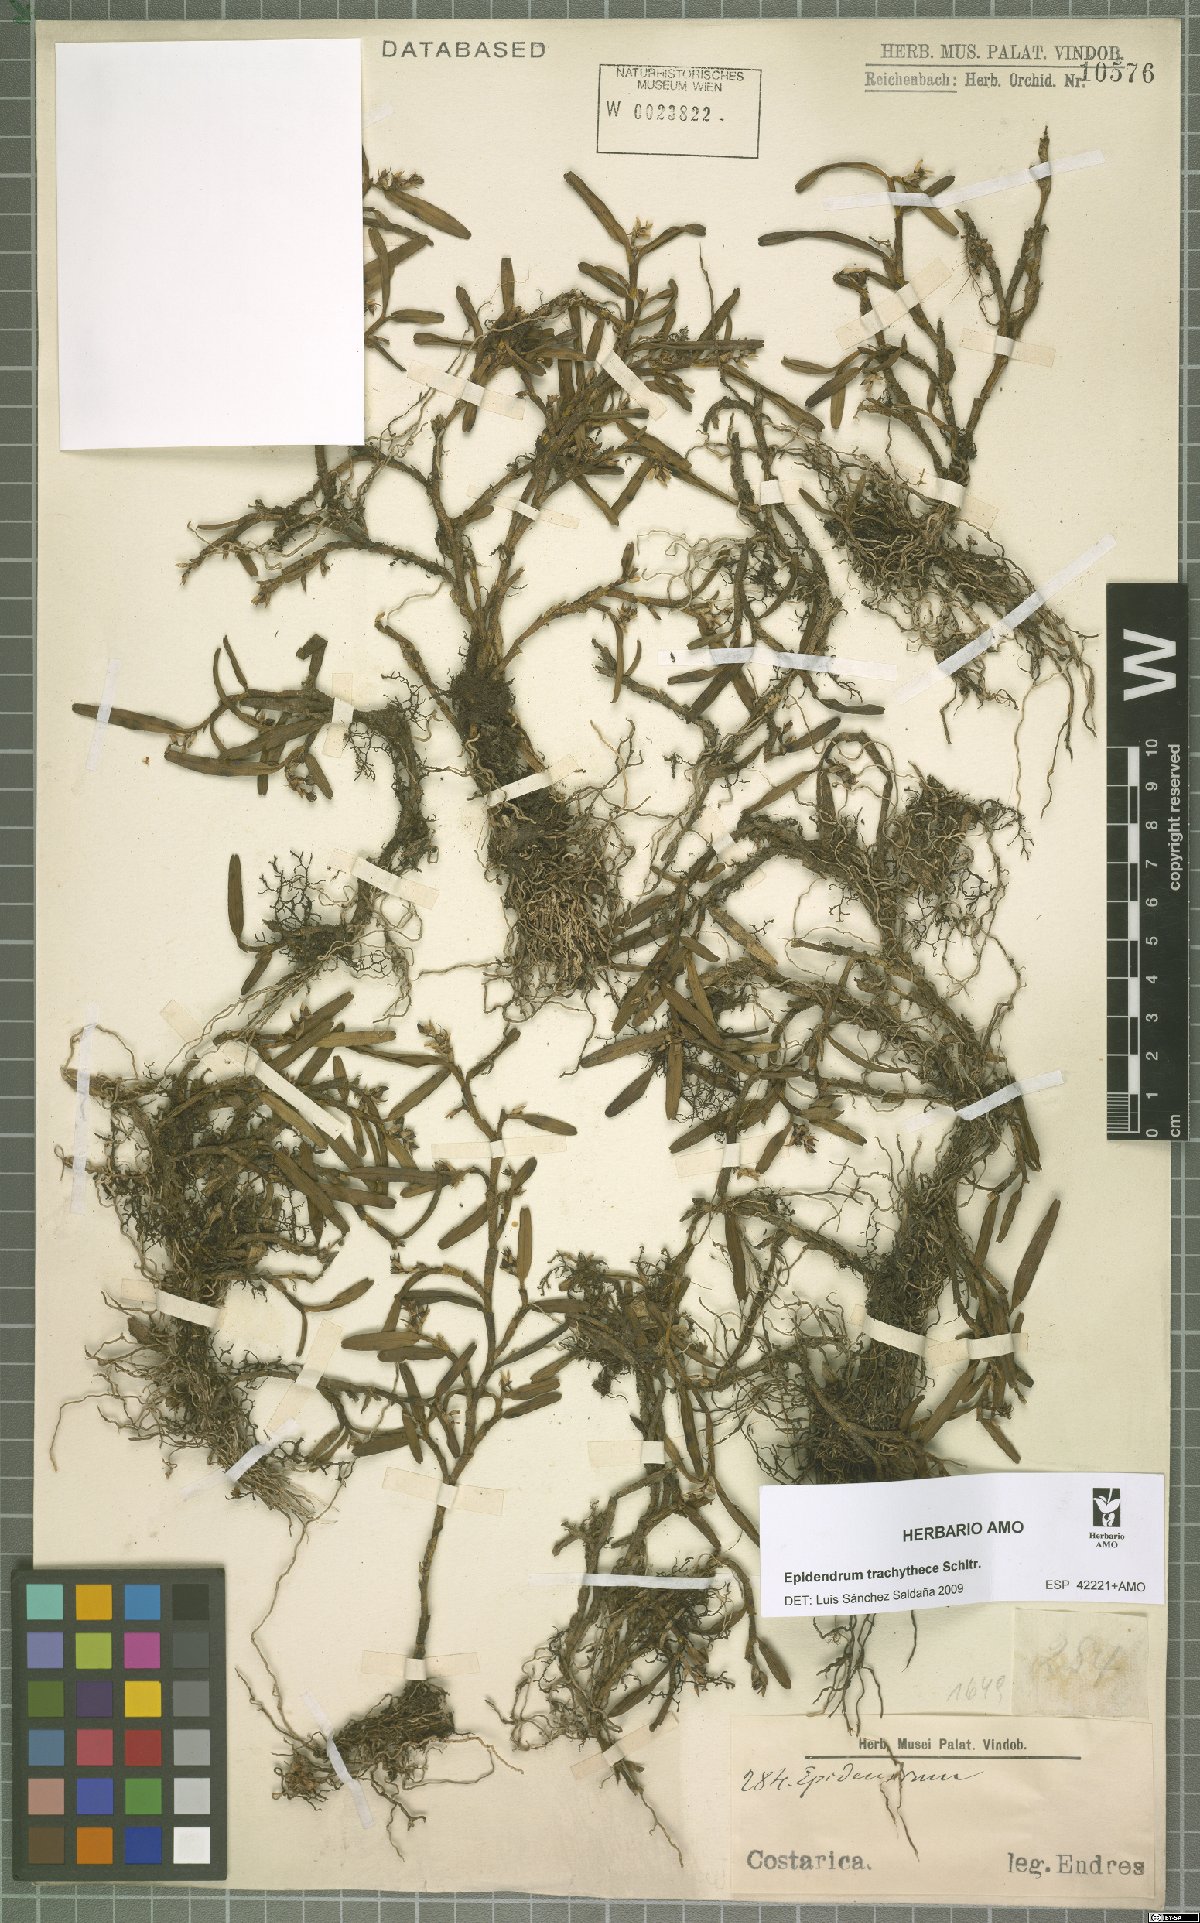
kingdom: Plantae
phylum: Tracheophyta
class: Liliopsida
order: Asparagales
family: Orchidaceae
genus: Epidendrum
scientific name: Epidendrum trachythece
